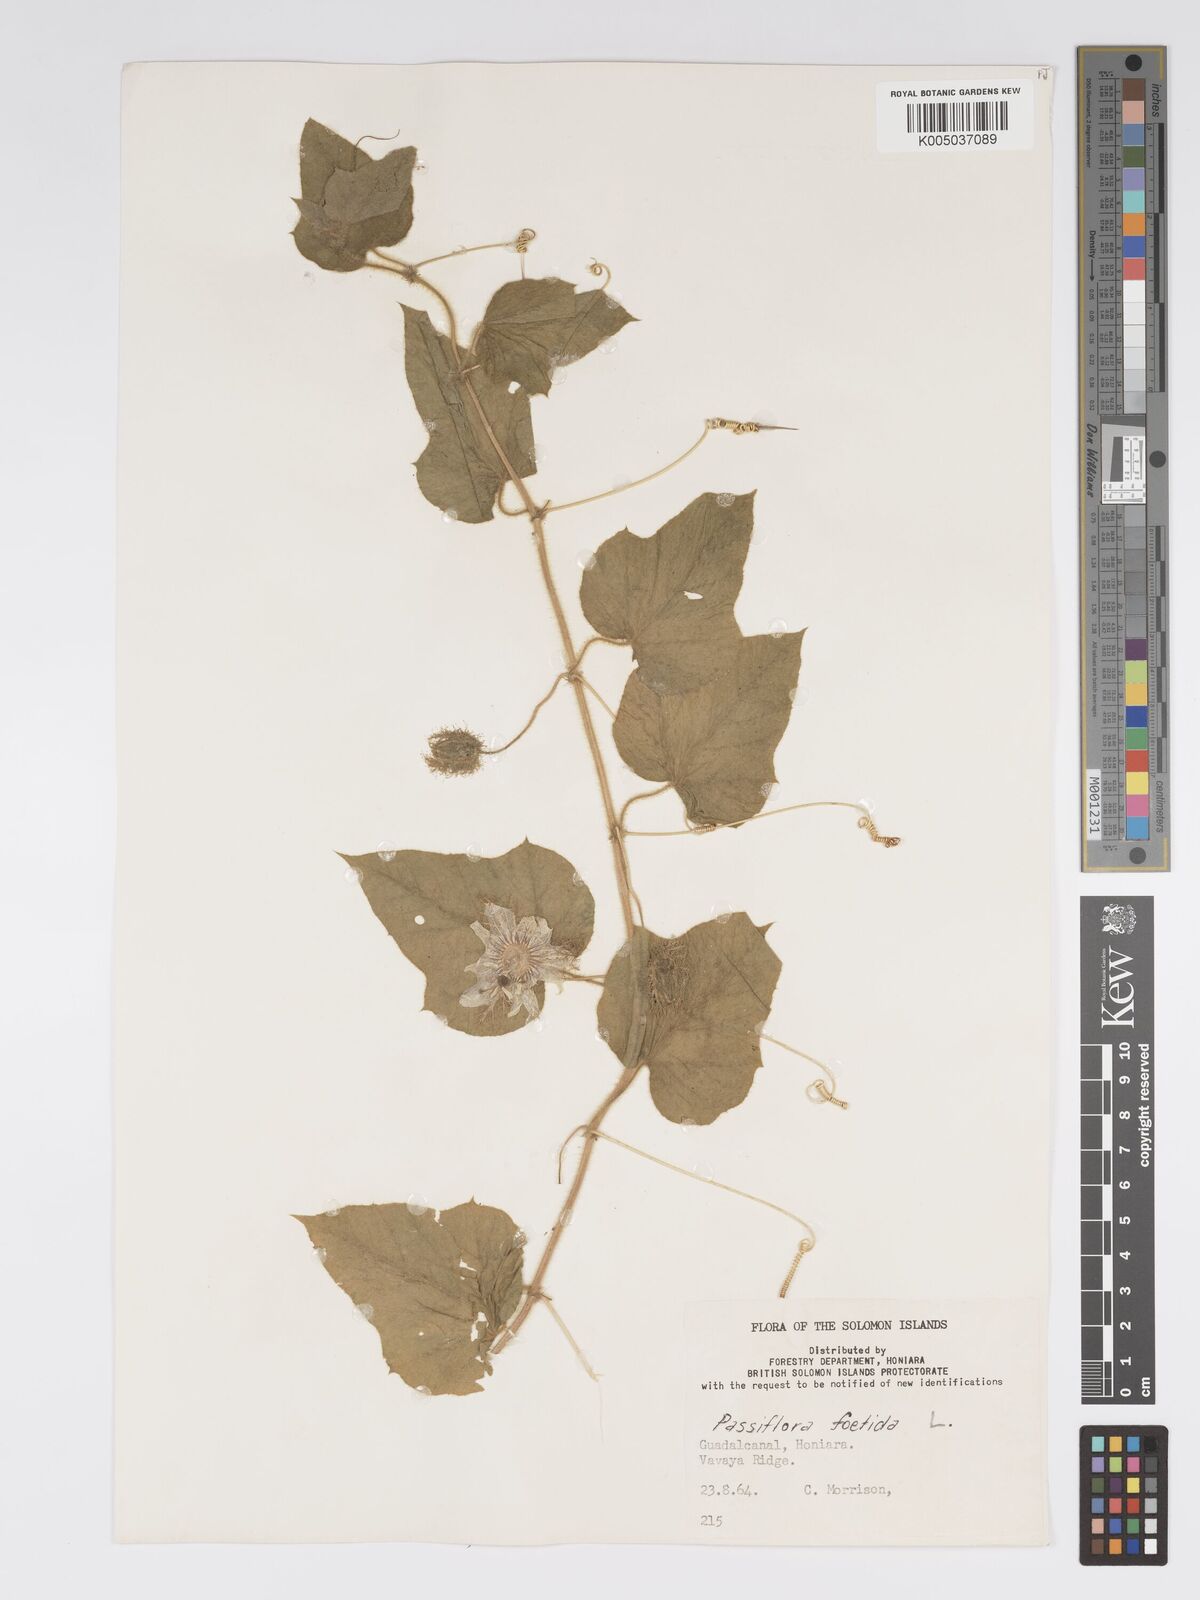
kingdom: Plantae
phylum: Tracheophyta
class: Magnoliopsida
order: Malpighiales
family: Passifloraceae
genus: Passiflora
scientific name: Passiflora foetida
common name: Fetid passionflower
